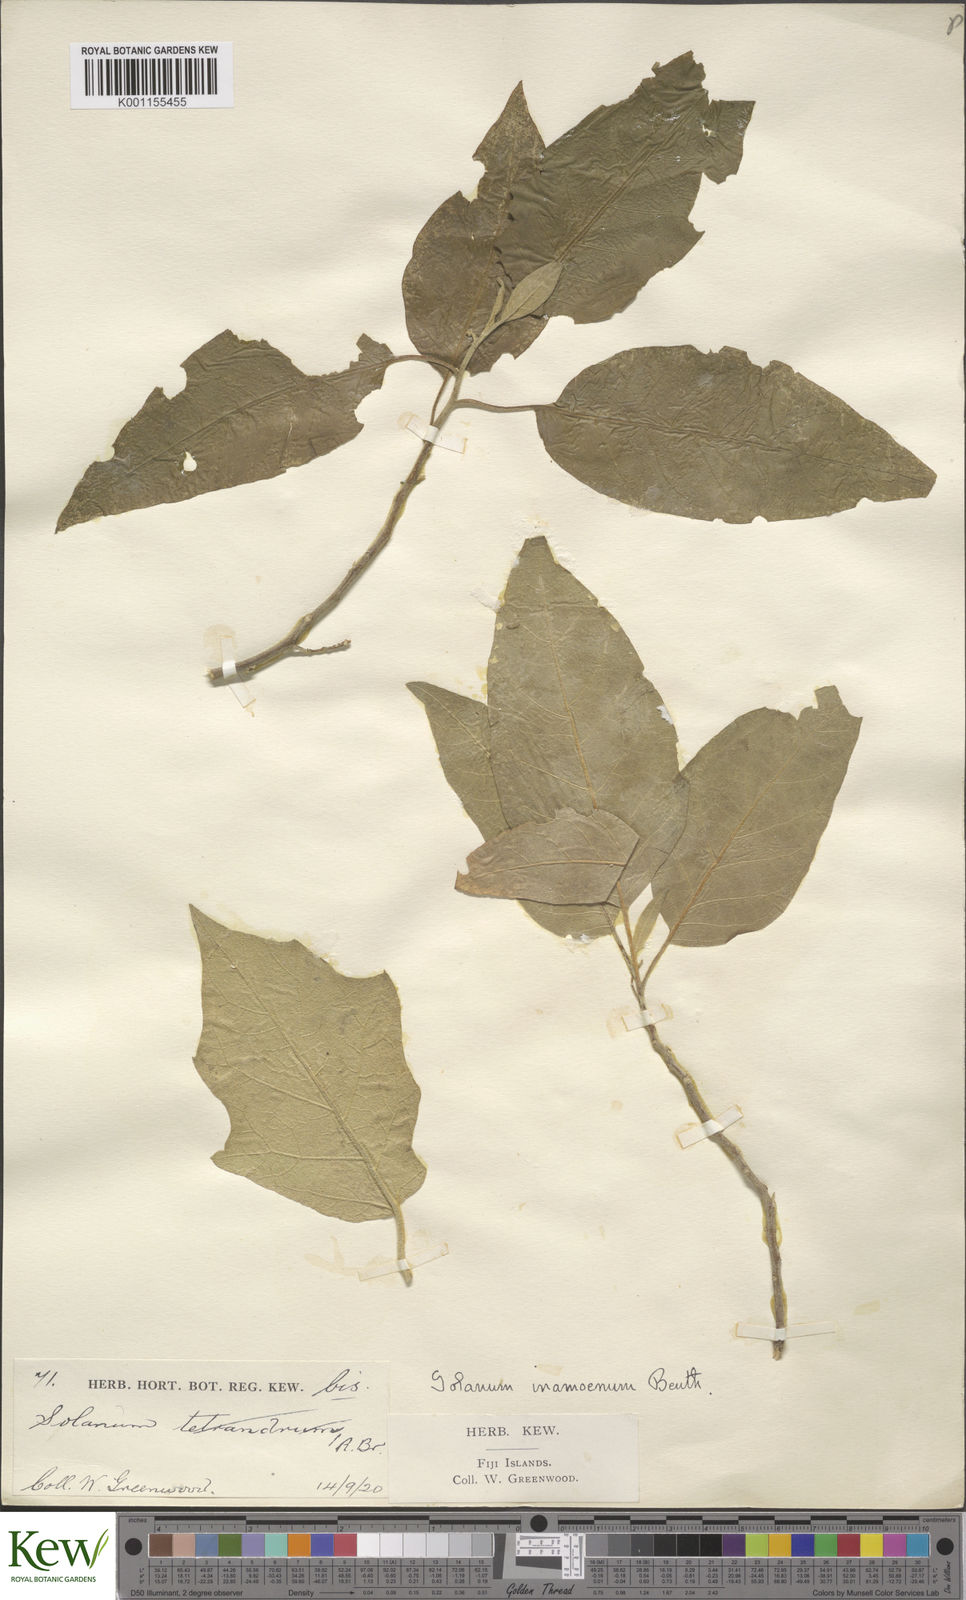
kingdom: Plantae
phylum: Tracheophyta
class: Magnoliopsida
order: Solanales
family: Solanaceae
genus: Solanum
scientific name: Solanum inamoenum
